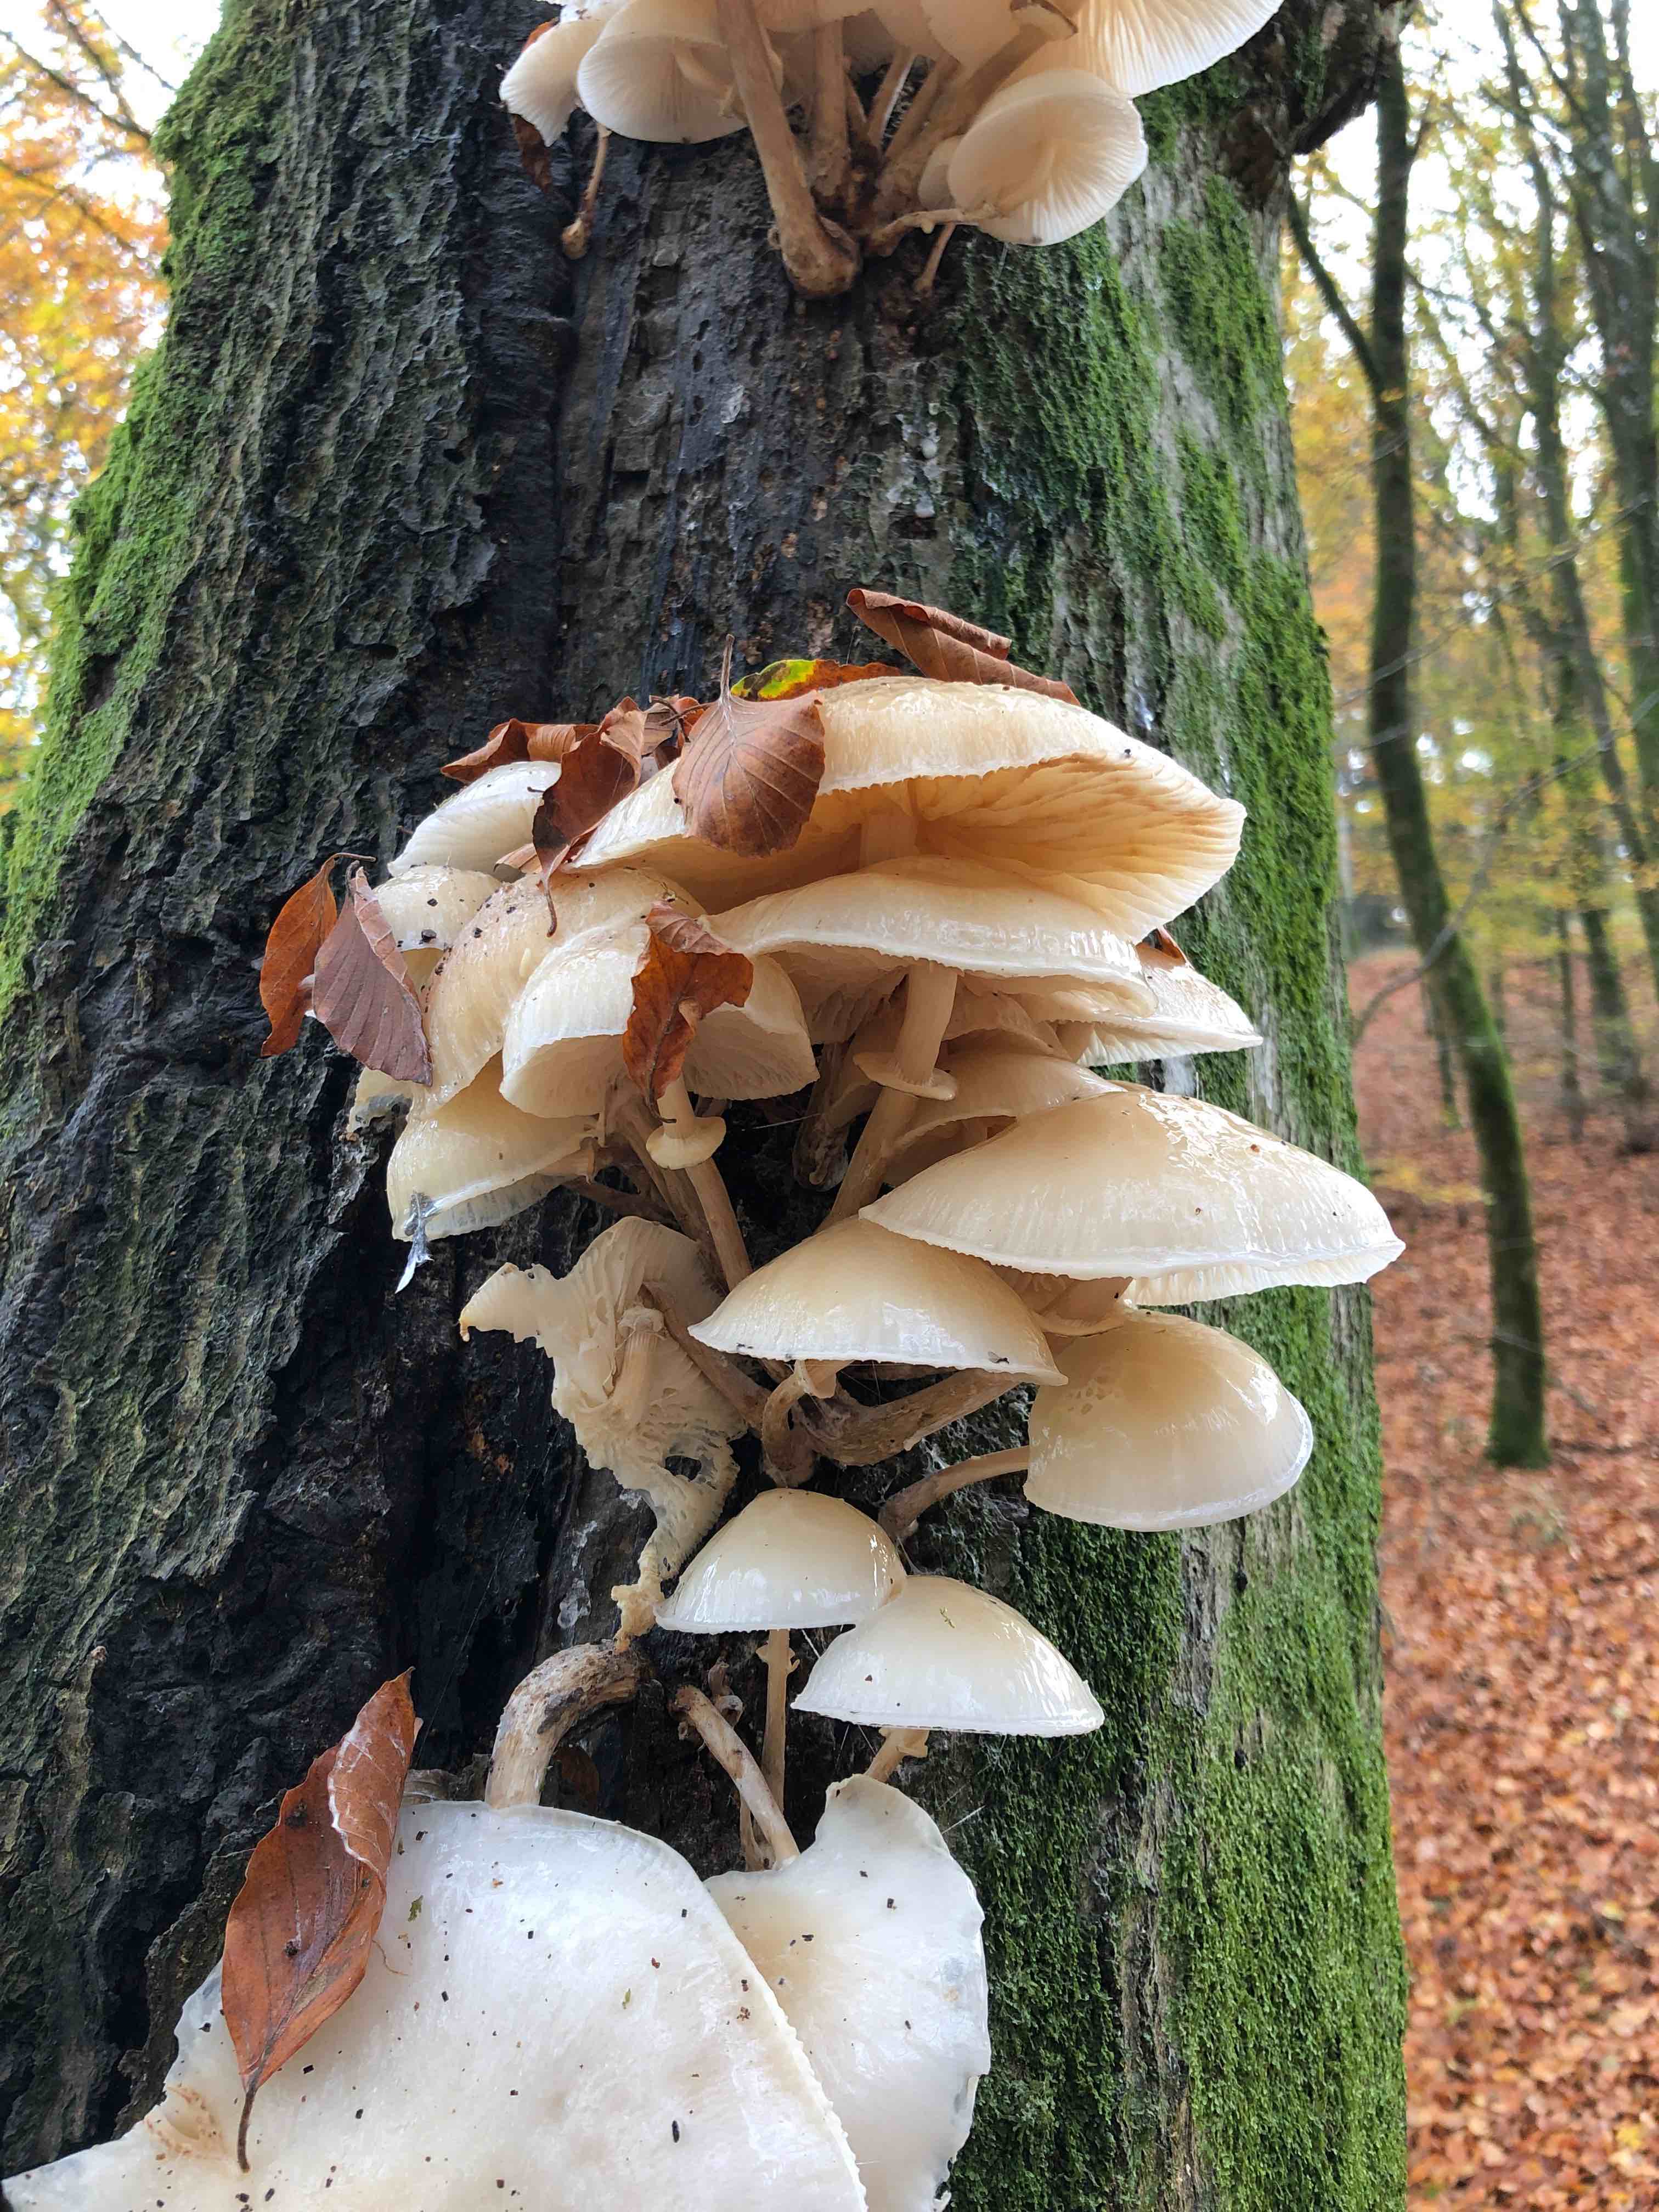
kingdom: Fungi
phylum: Basidiomycota
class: Agaricomycetes
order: Agaricales
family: Physalacriaceae
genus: Mucidula
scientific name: Mucidula mucida
